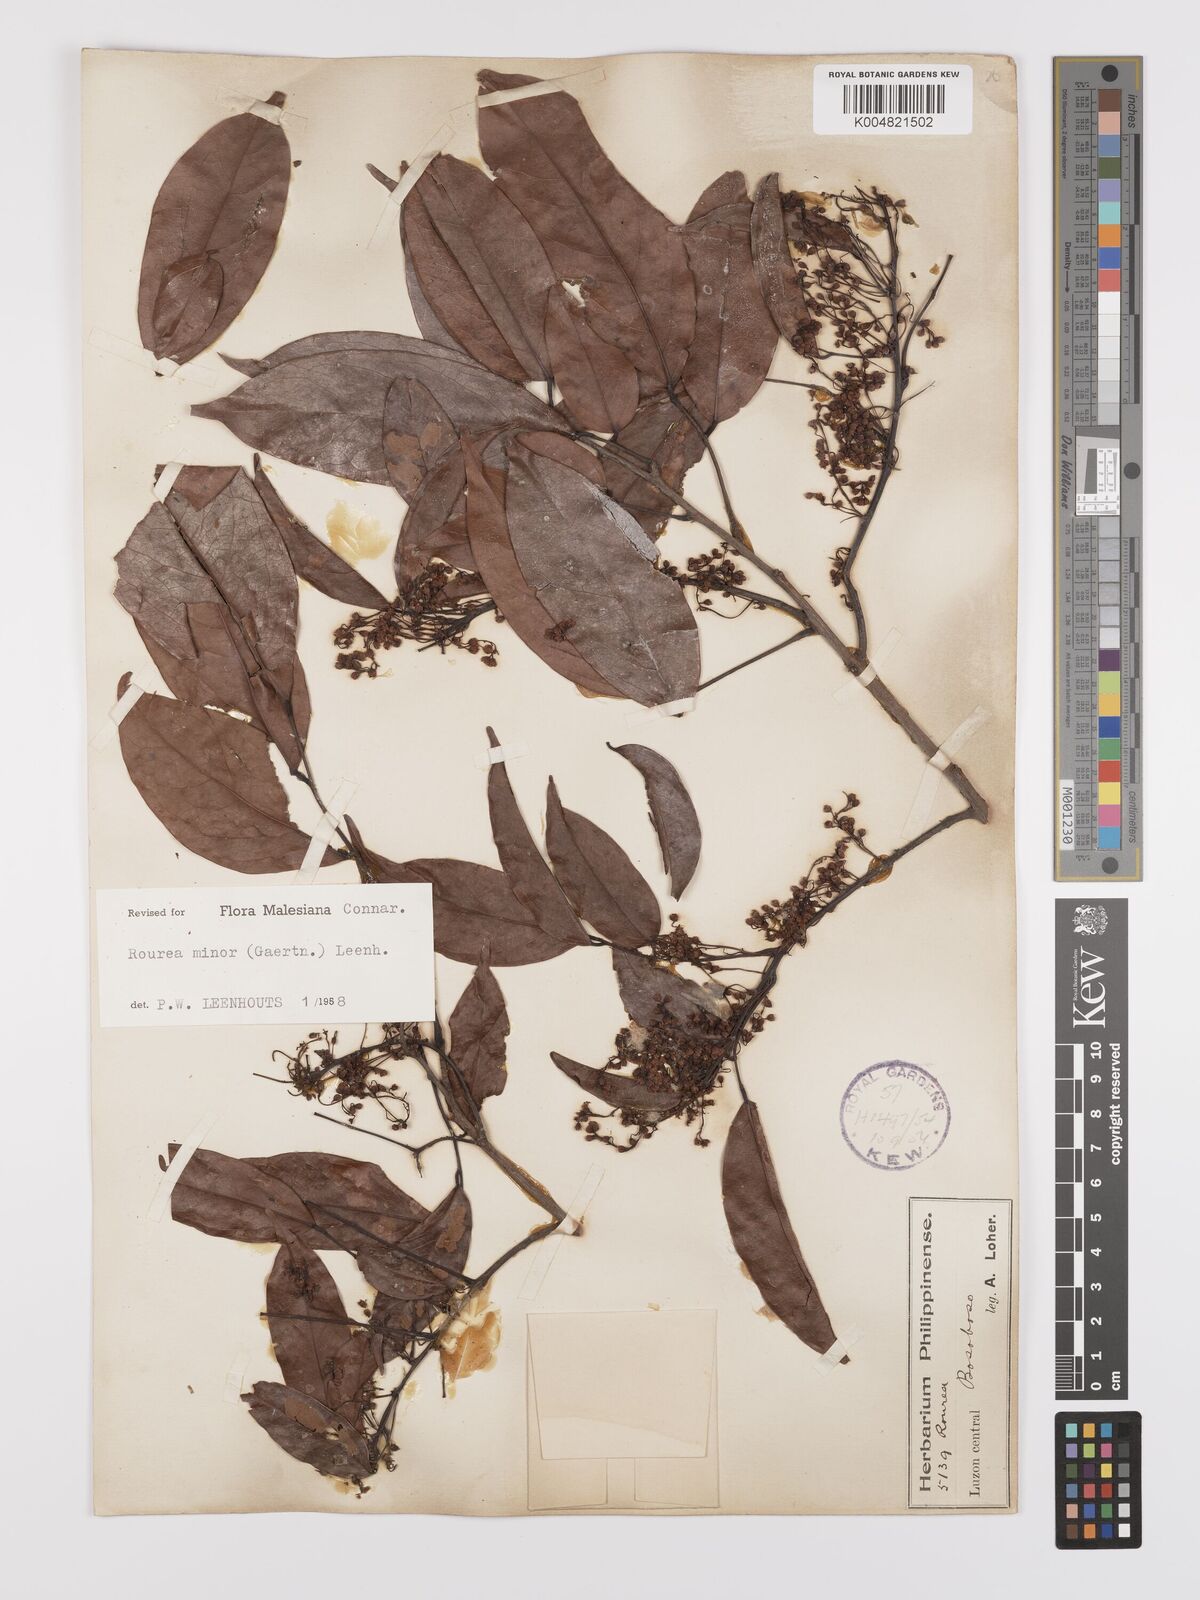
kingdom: Plantae
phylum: Tracheophyta
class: Magnoliopsida
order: Oxalidales
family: Connaraceae
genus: Rourea
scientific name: Rourea minor
